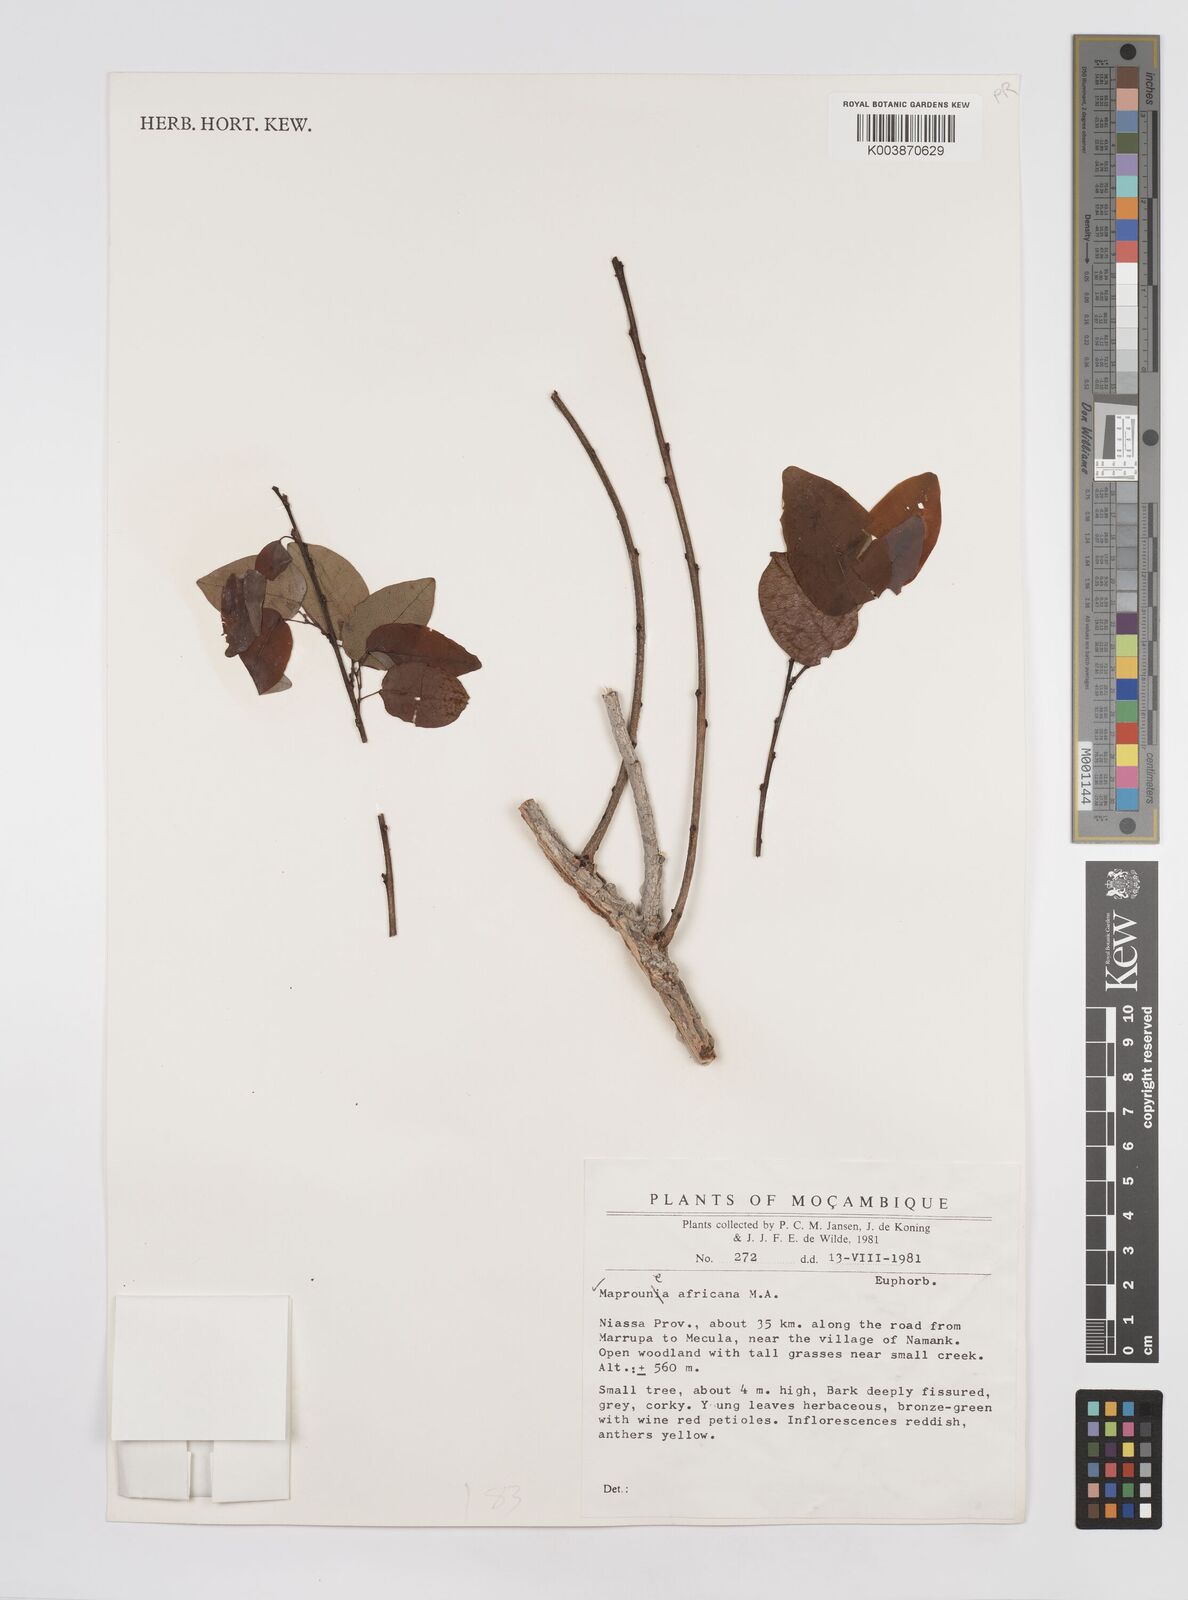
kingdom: Plantae
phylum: Tracheophyta
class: Magnoliopsida
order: Malpighiales
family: Euphorbiaceae
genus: Maprounea
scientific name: Maprounea africana
